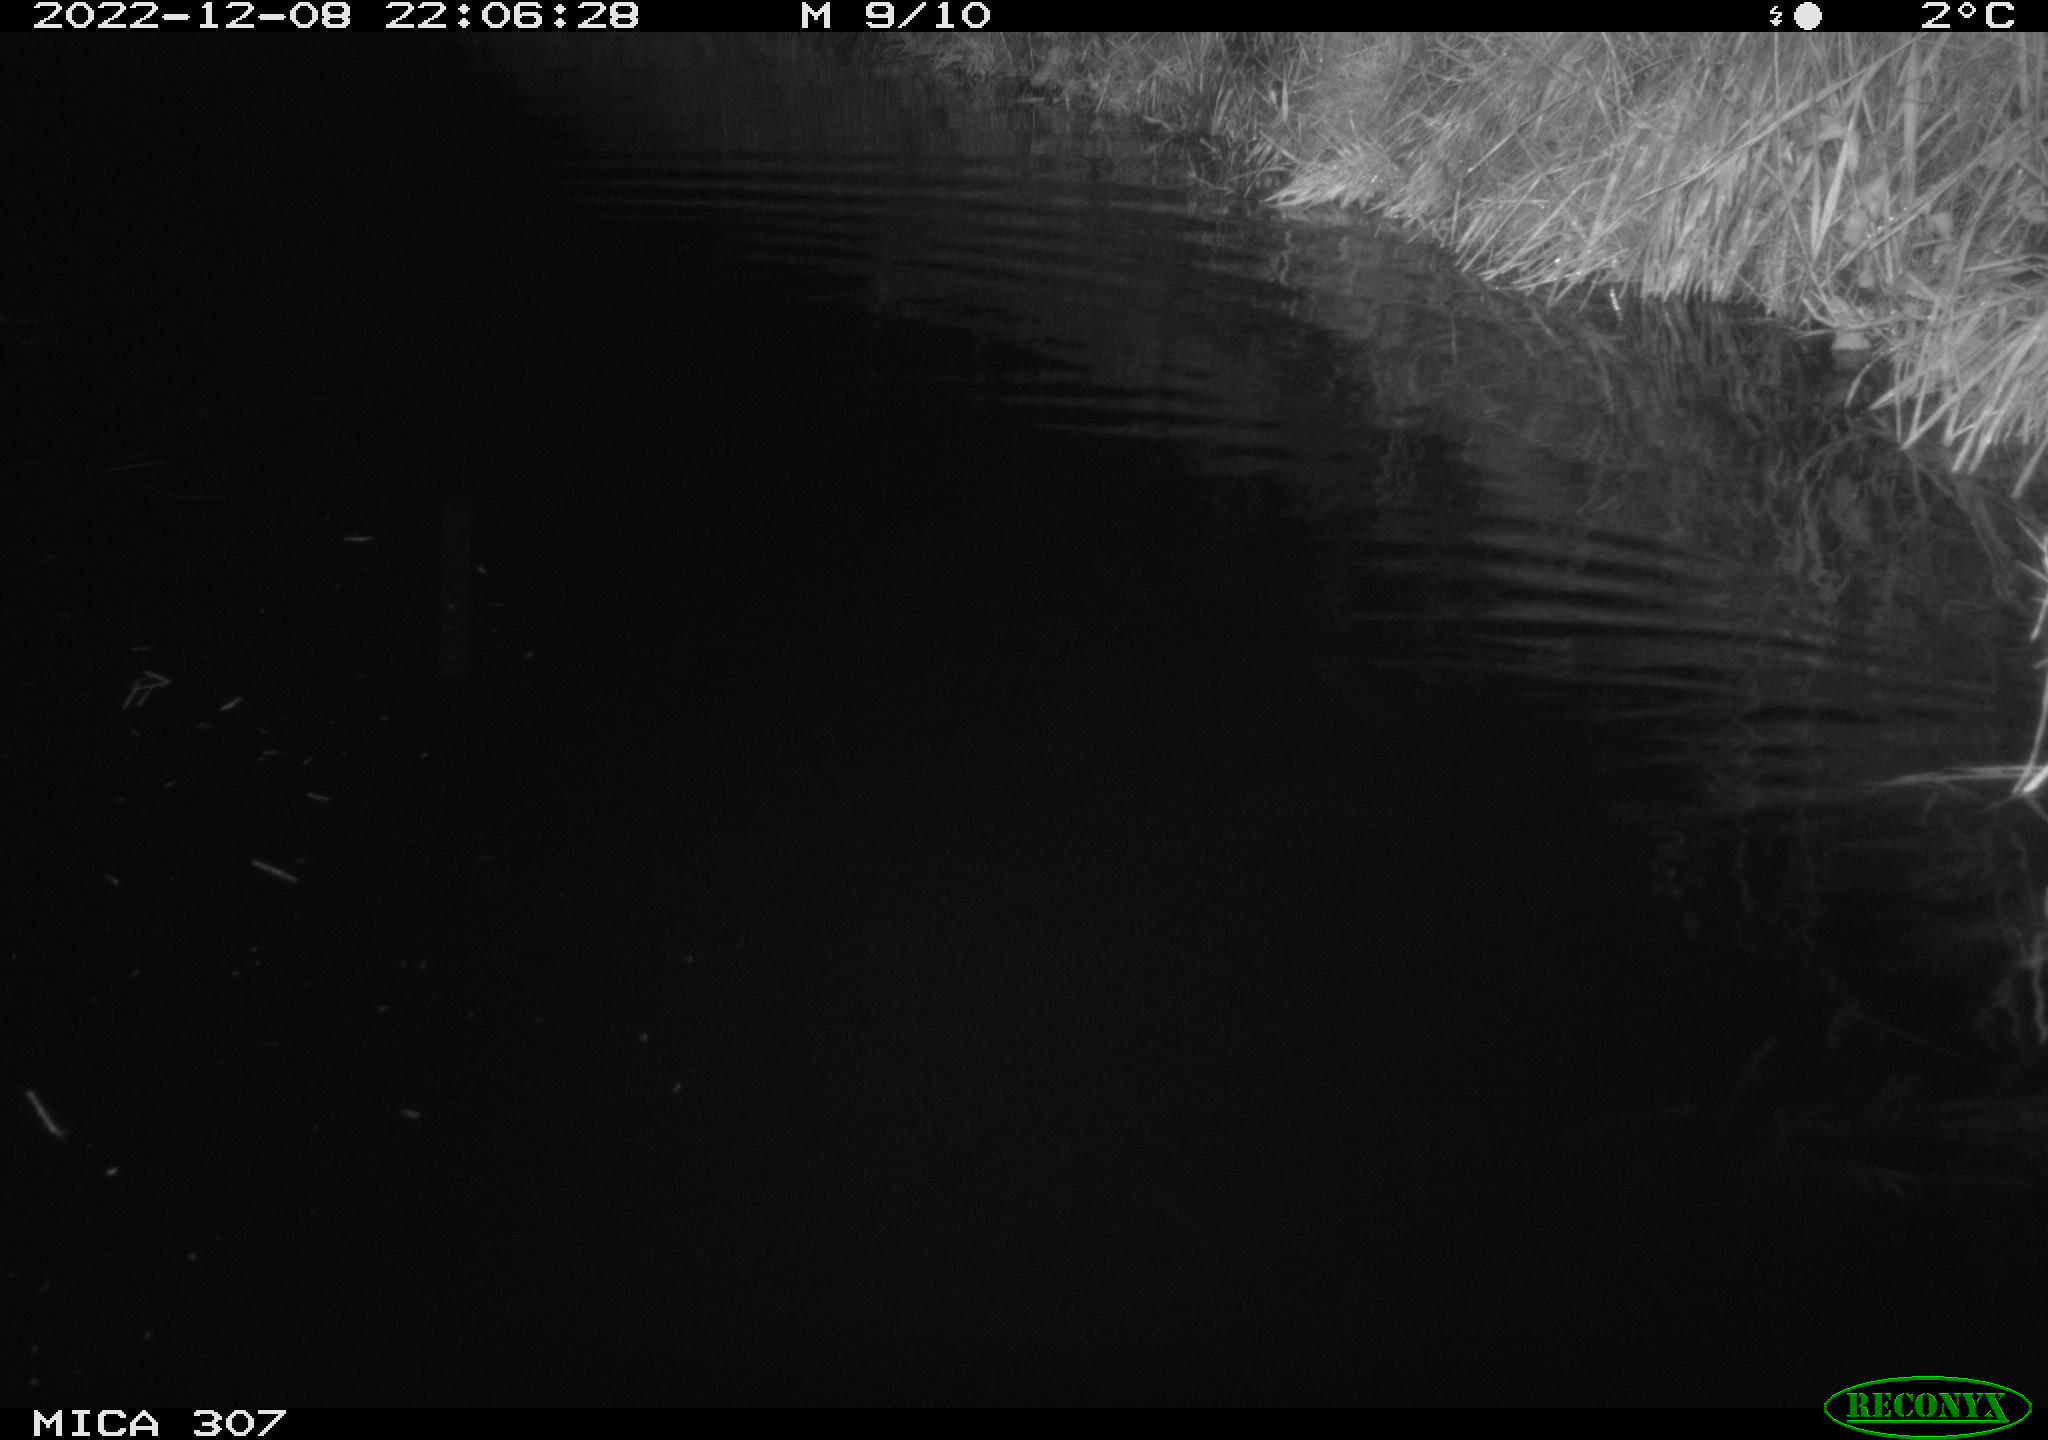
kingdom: Animalia
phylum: Chordata
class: Mammalia
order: Rodentia
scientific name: Rodentia
